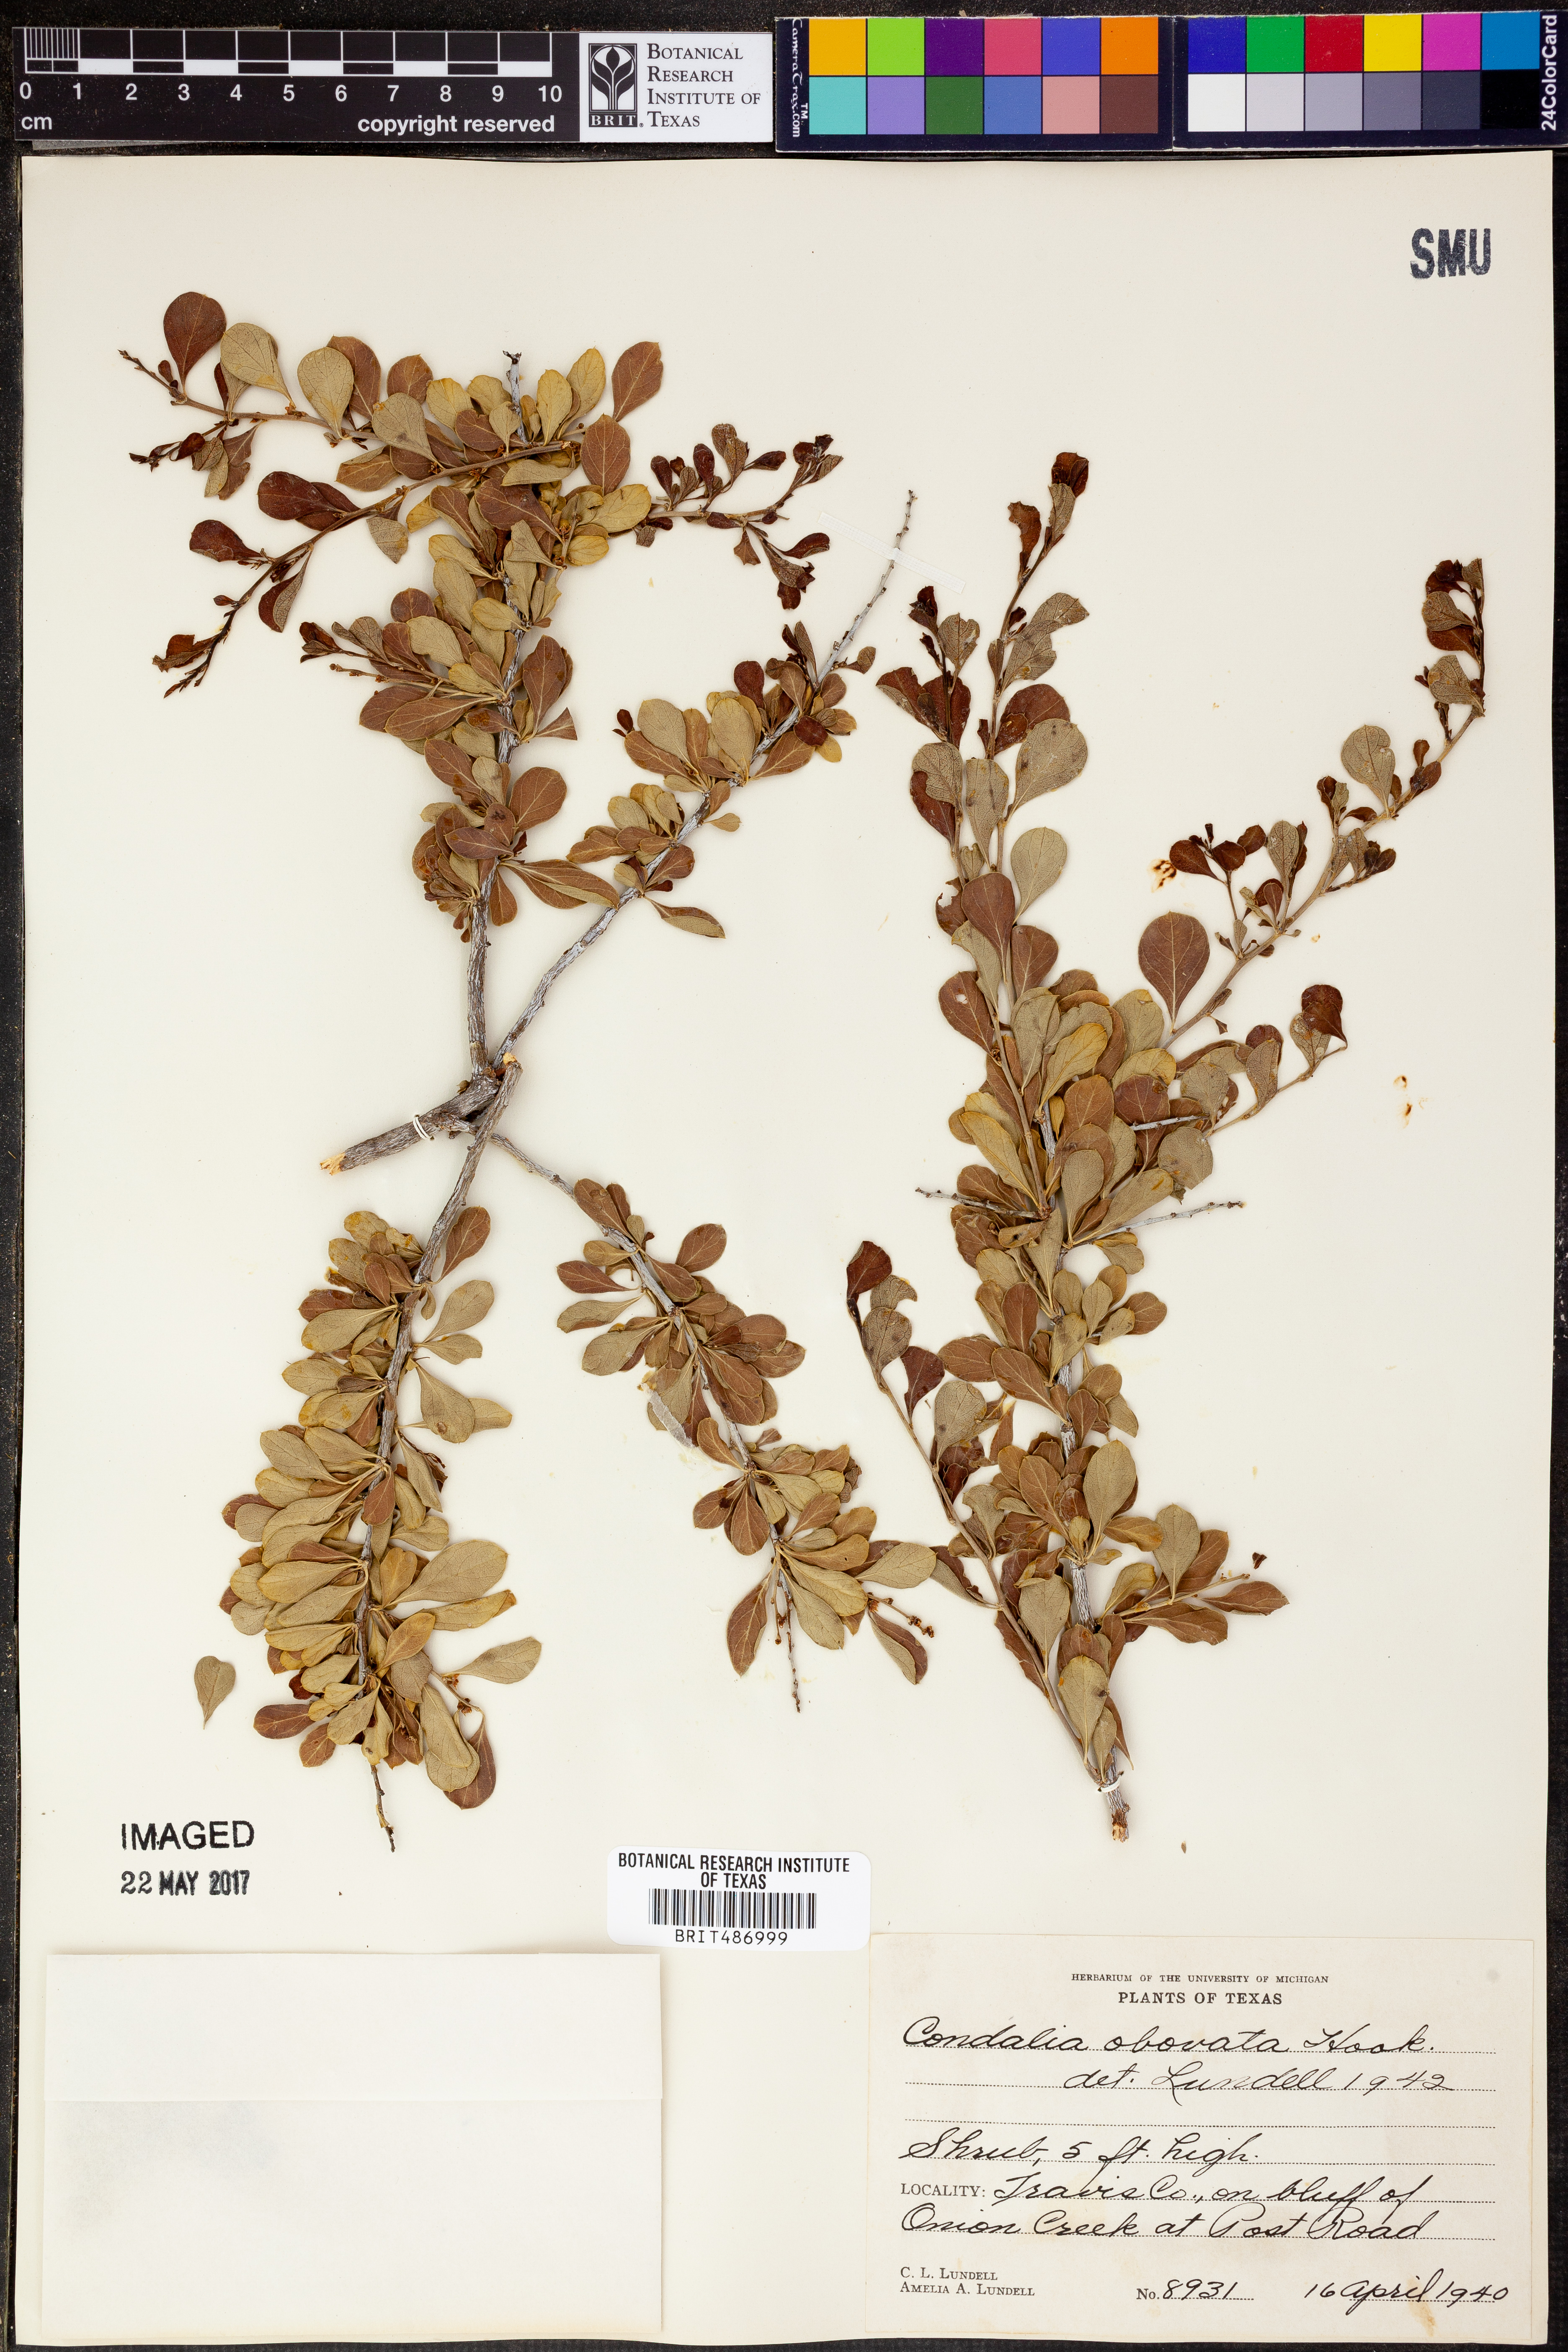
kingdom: Plantae
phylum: Tracheophyta
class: Magnoliopsida
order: Rosales
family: Rhamnaceae
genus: Condalia
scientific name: Condalia hookeri
